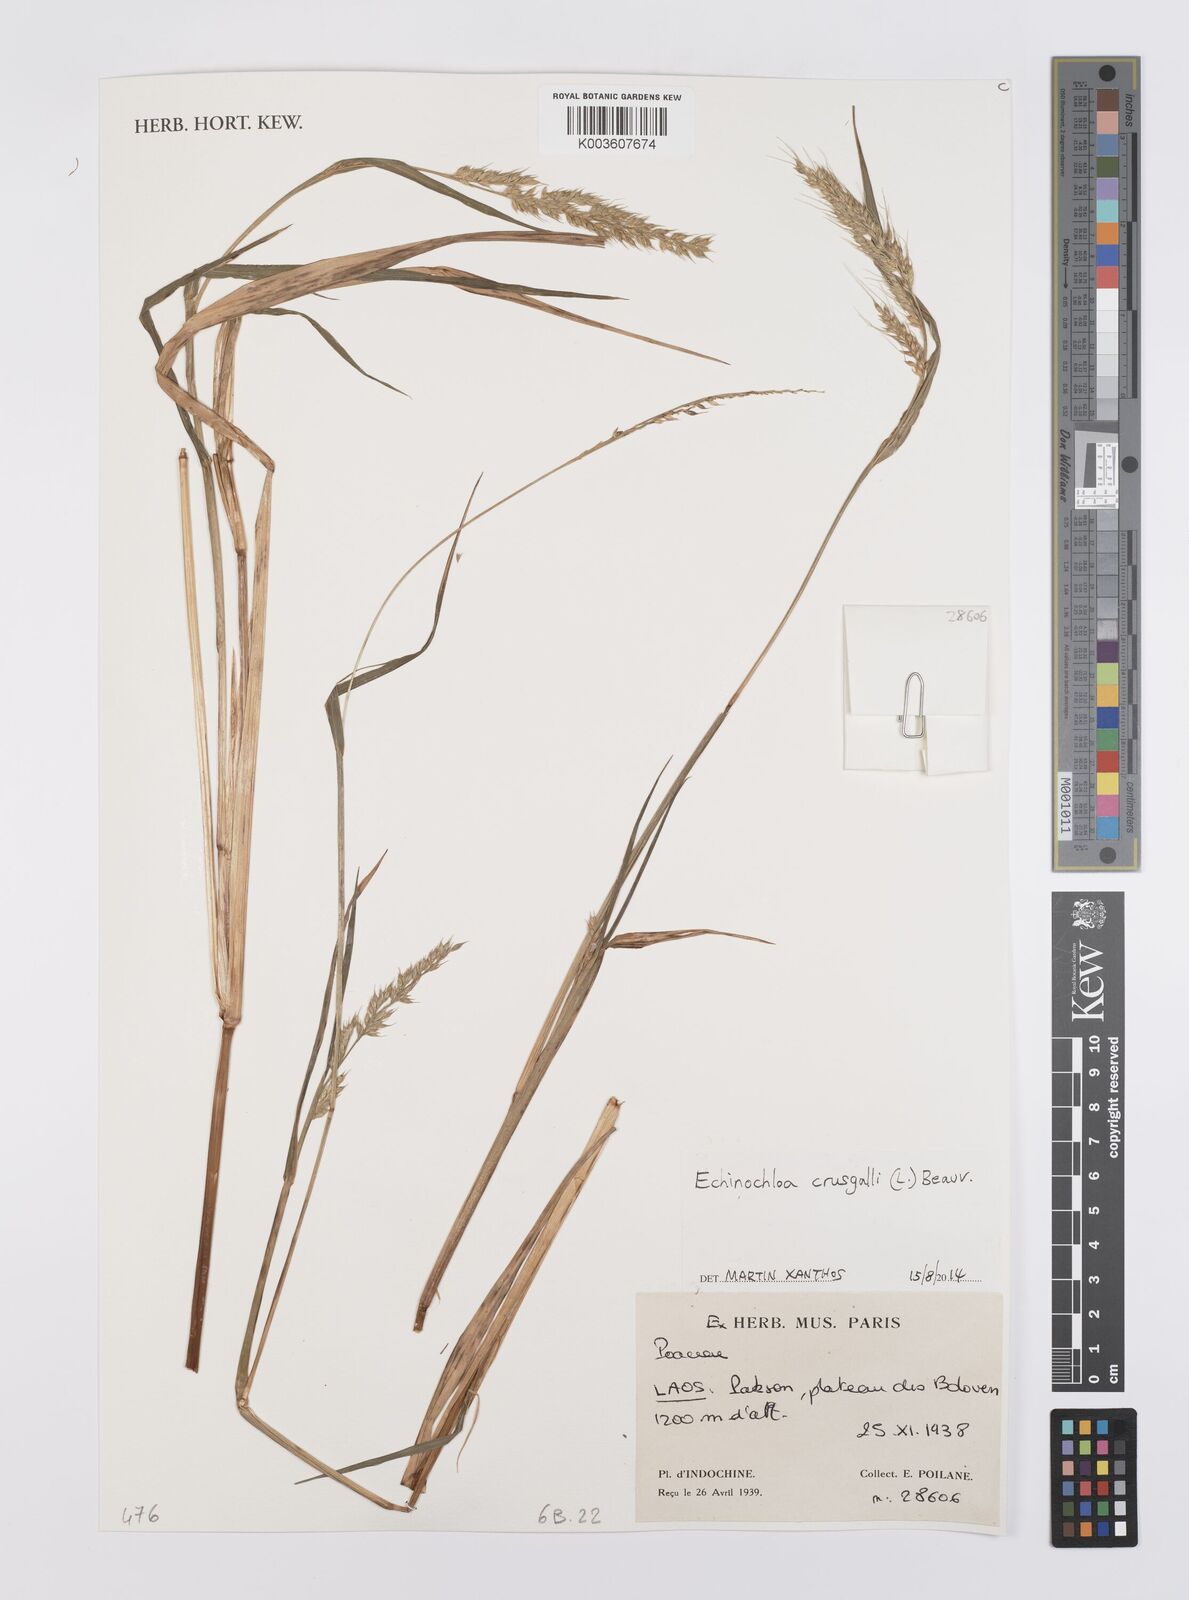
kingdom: Plantae
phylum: Tracheophyta
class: Liliopsida
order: Poales
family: Poaceae
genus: Echinochloa
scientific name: Echinochloa crus-galli
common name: Cockspur
